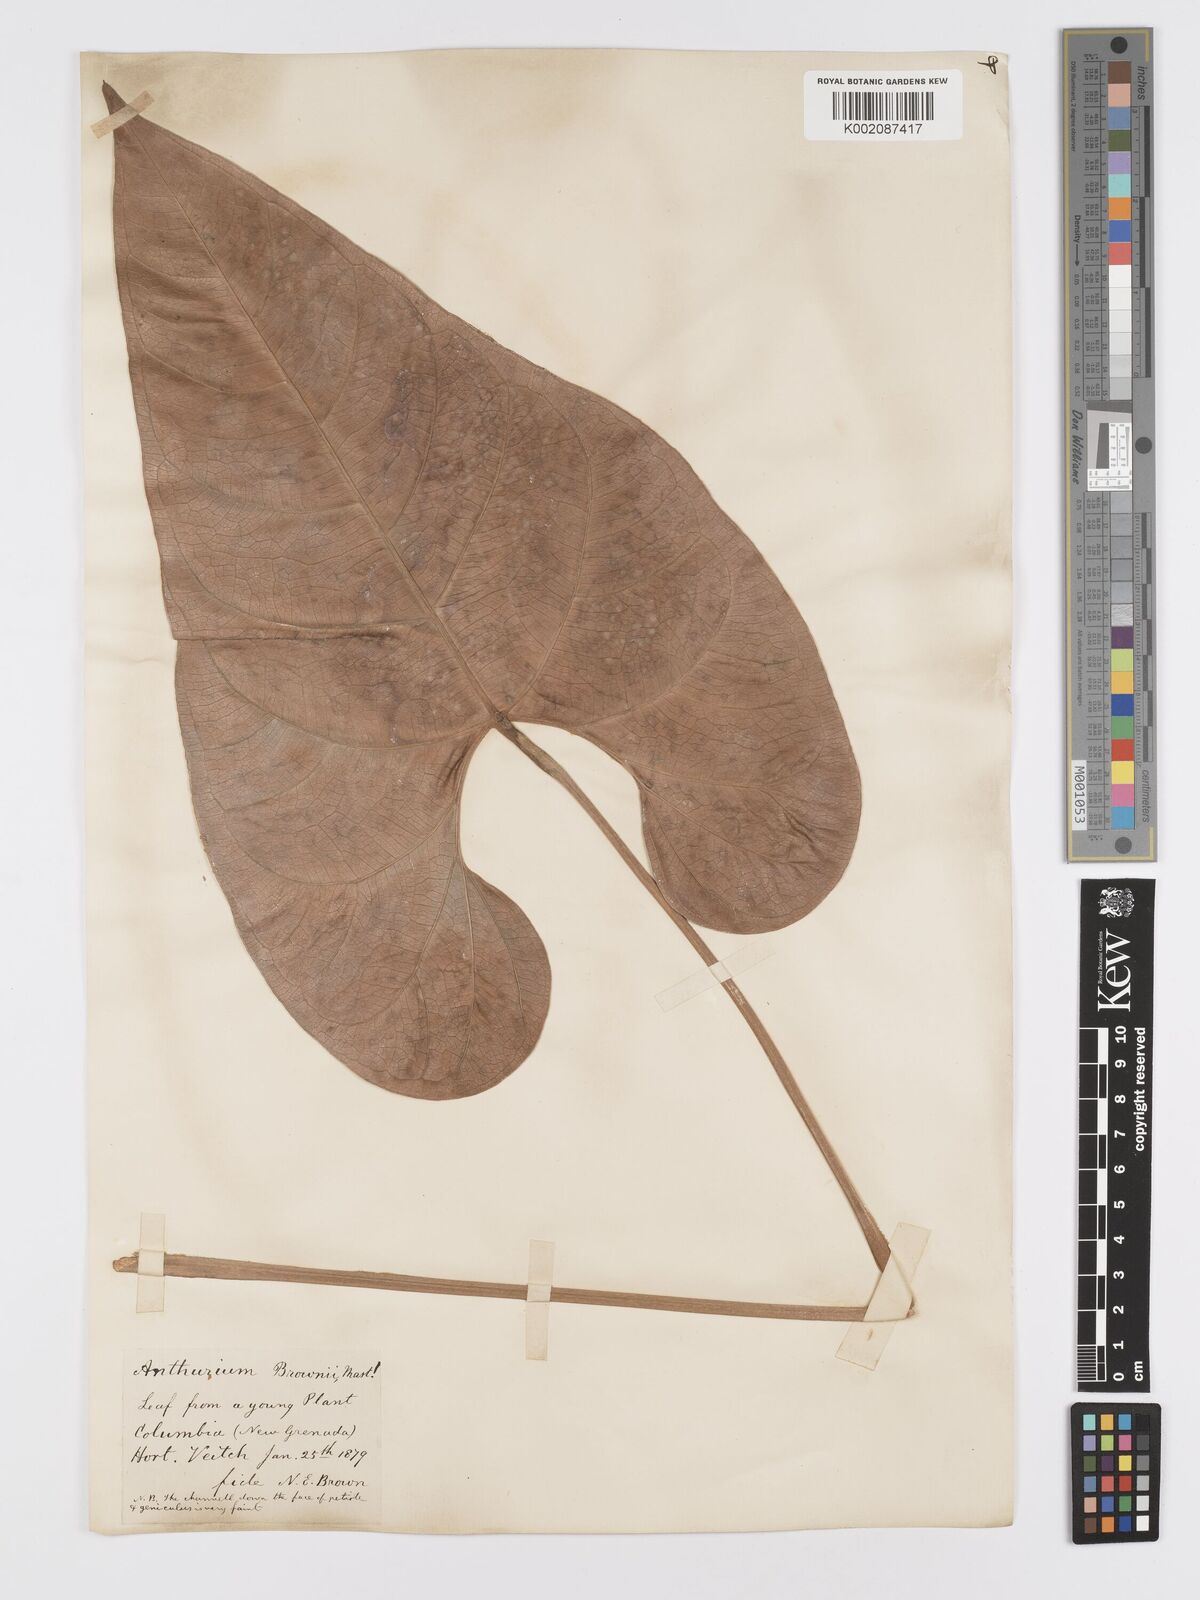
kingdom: Plantae
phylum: Tracheophyta
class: Liliopsida
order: Alismatales
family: Araceae
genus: Anthurium
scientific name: Anthurium brownii
